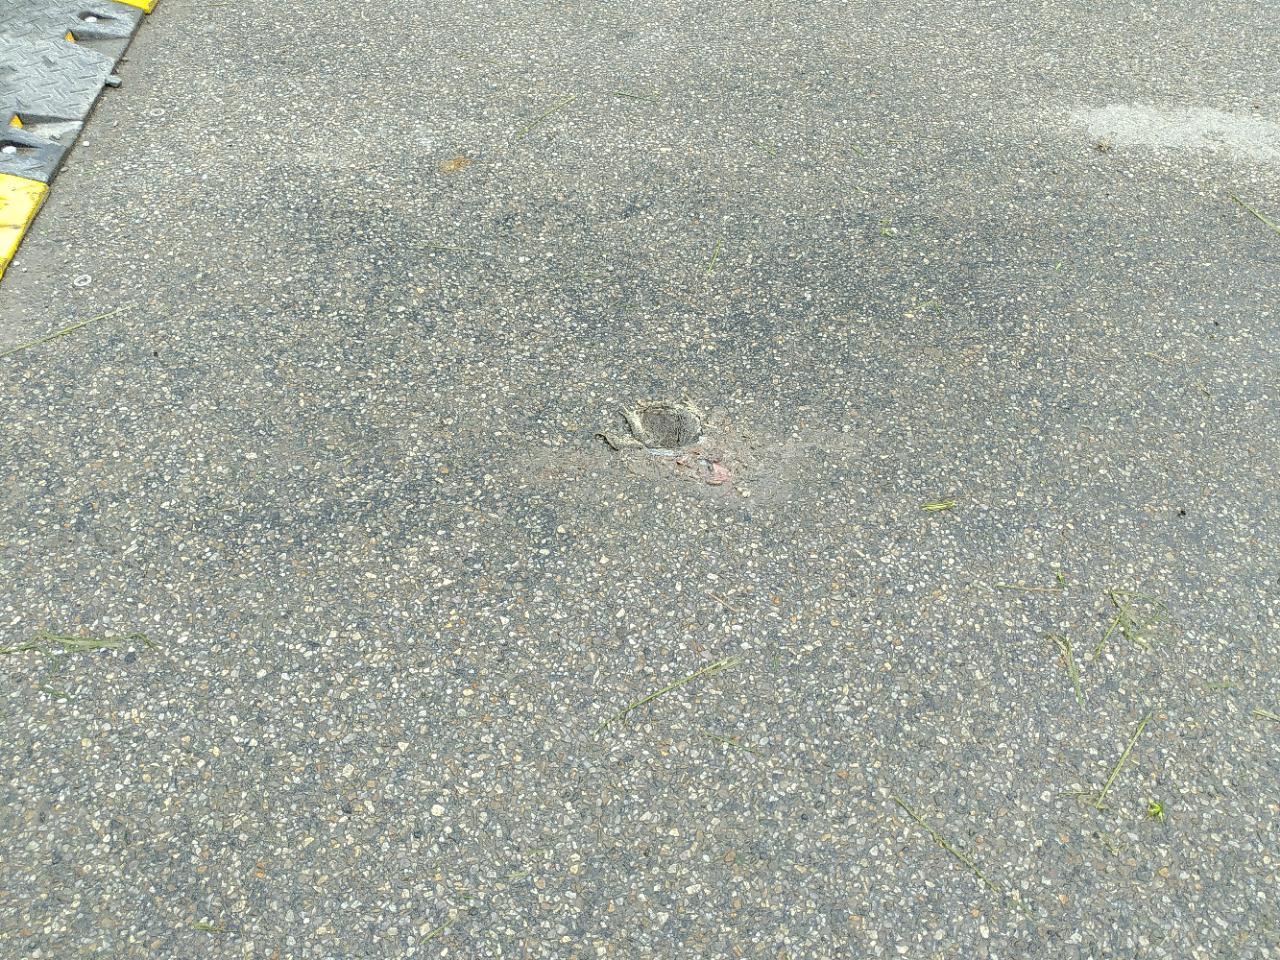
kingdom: Animalia
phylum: Chordata
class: Amphibia
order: Anura
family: Bufonidae
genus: Bufo
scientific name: Bufo bufo
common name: Common toad
